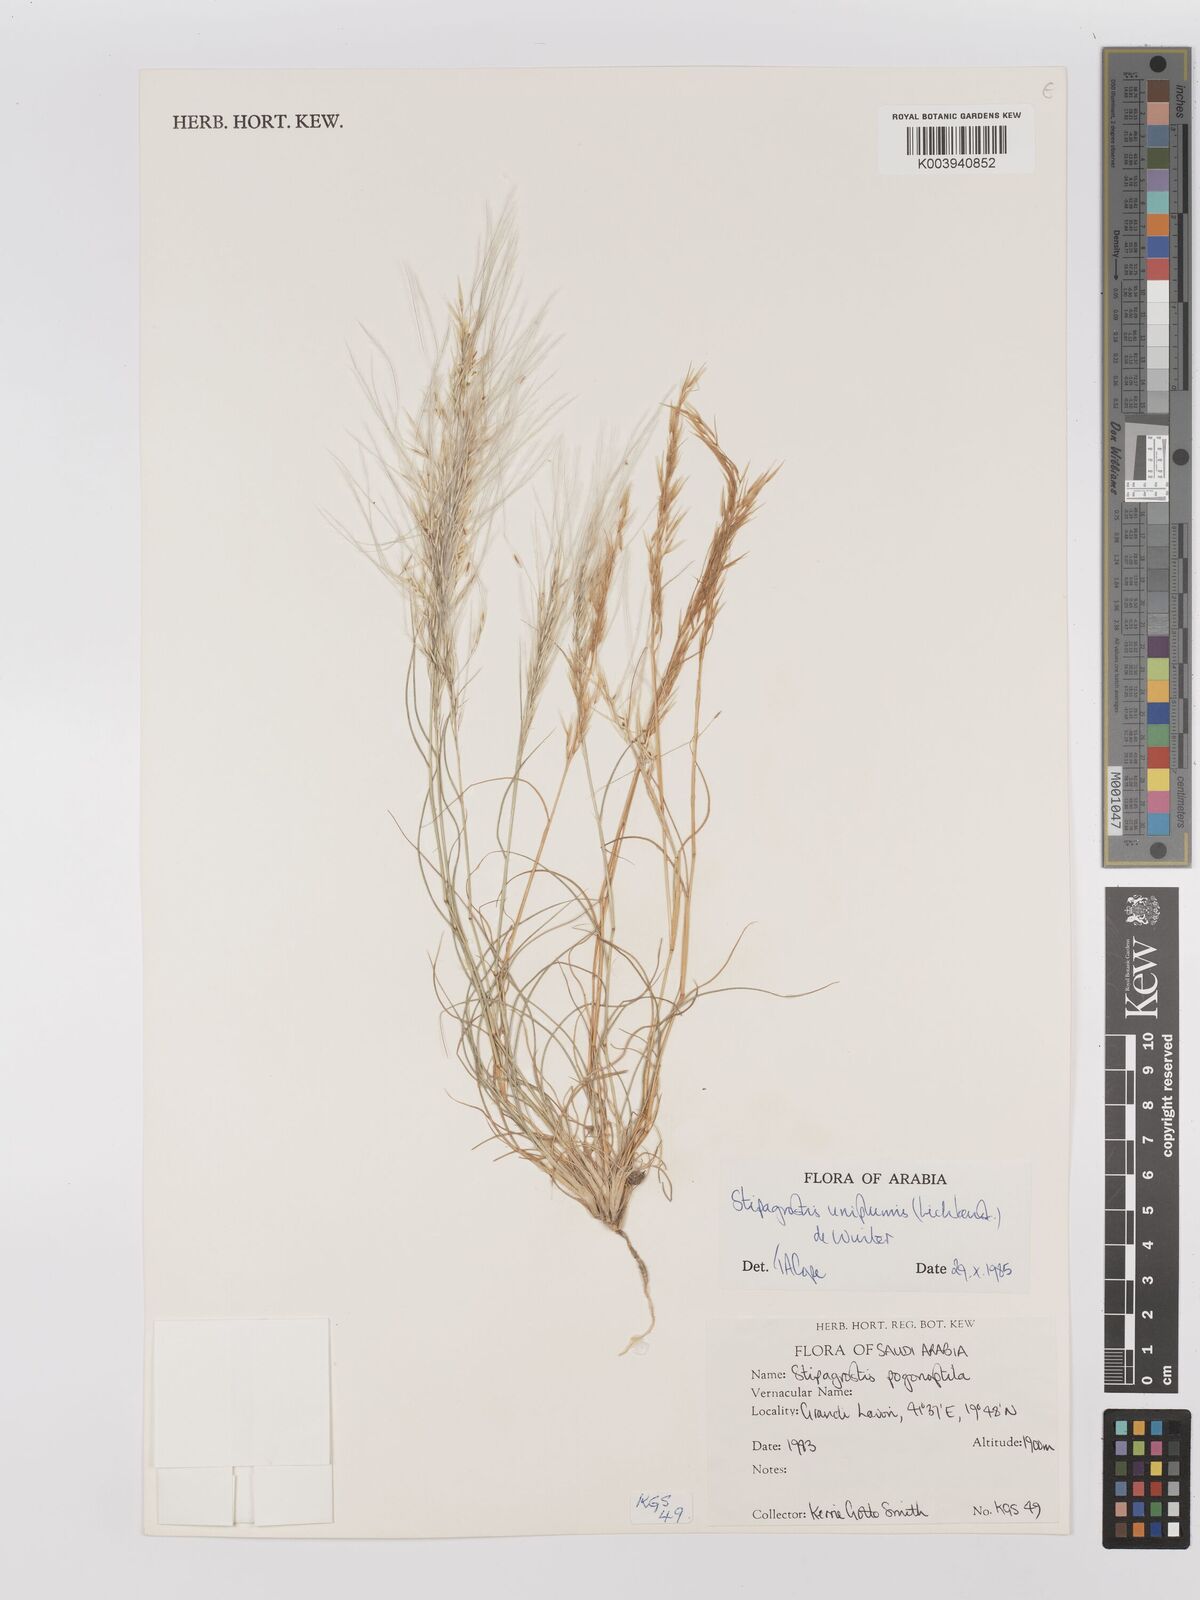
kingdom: Plantae
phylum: Tracheophyta
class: Liliopsida
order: Poales
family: Poaceae
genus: Stipagrostis
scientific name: Stipagrostis uniplumis
